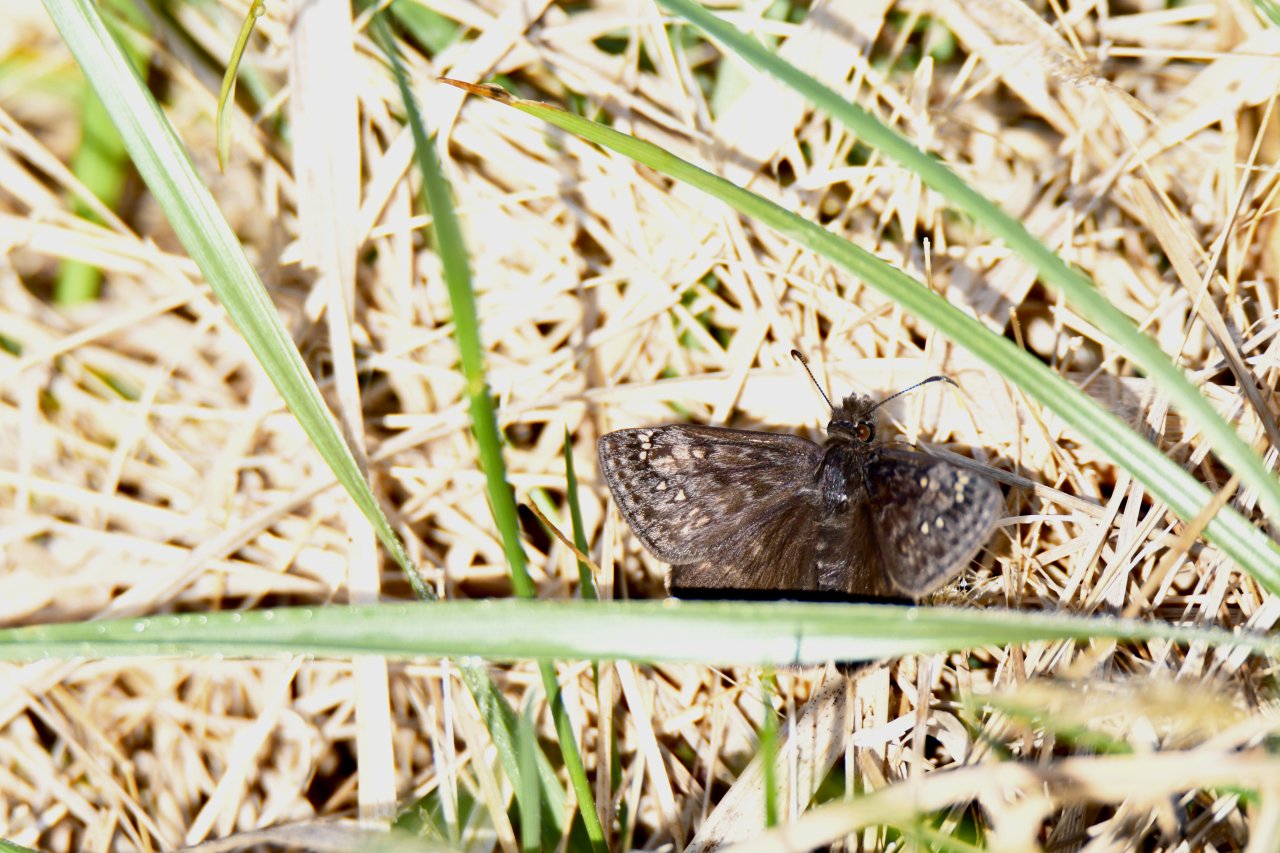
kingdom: Animalia
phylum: Arthropoda
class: Insecta
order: Lepidoptera
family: Hesperiidae
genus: Gesta
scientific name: Gesta
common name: Juvenal's Duskywing
